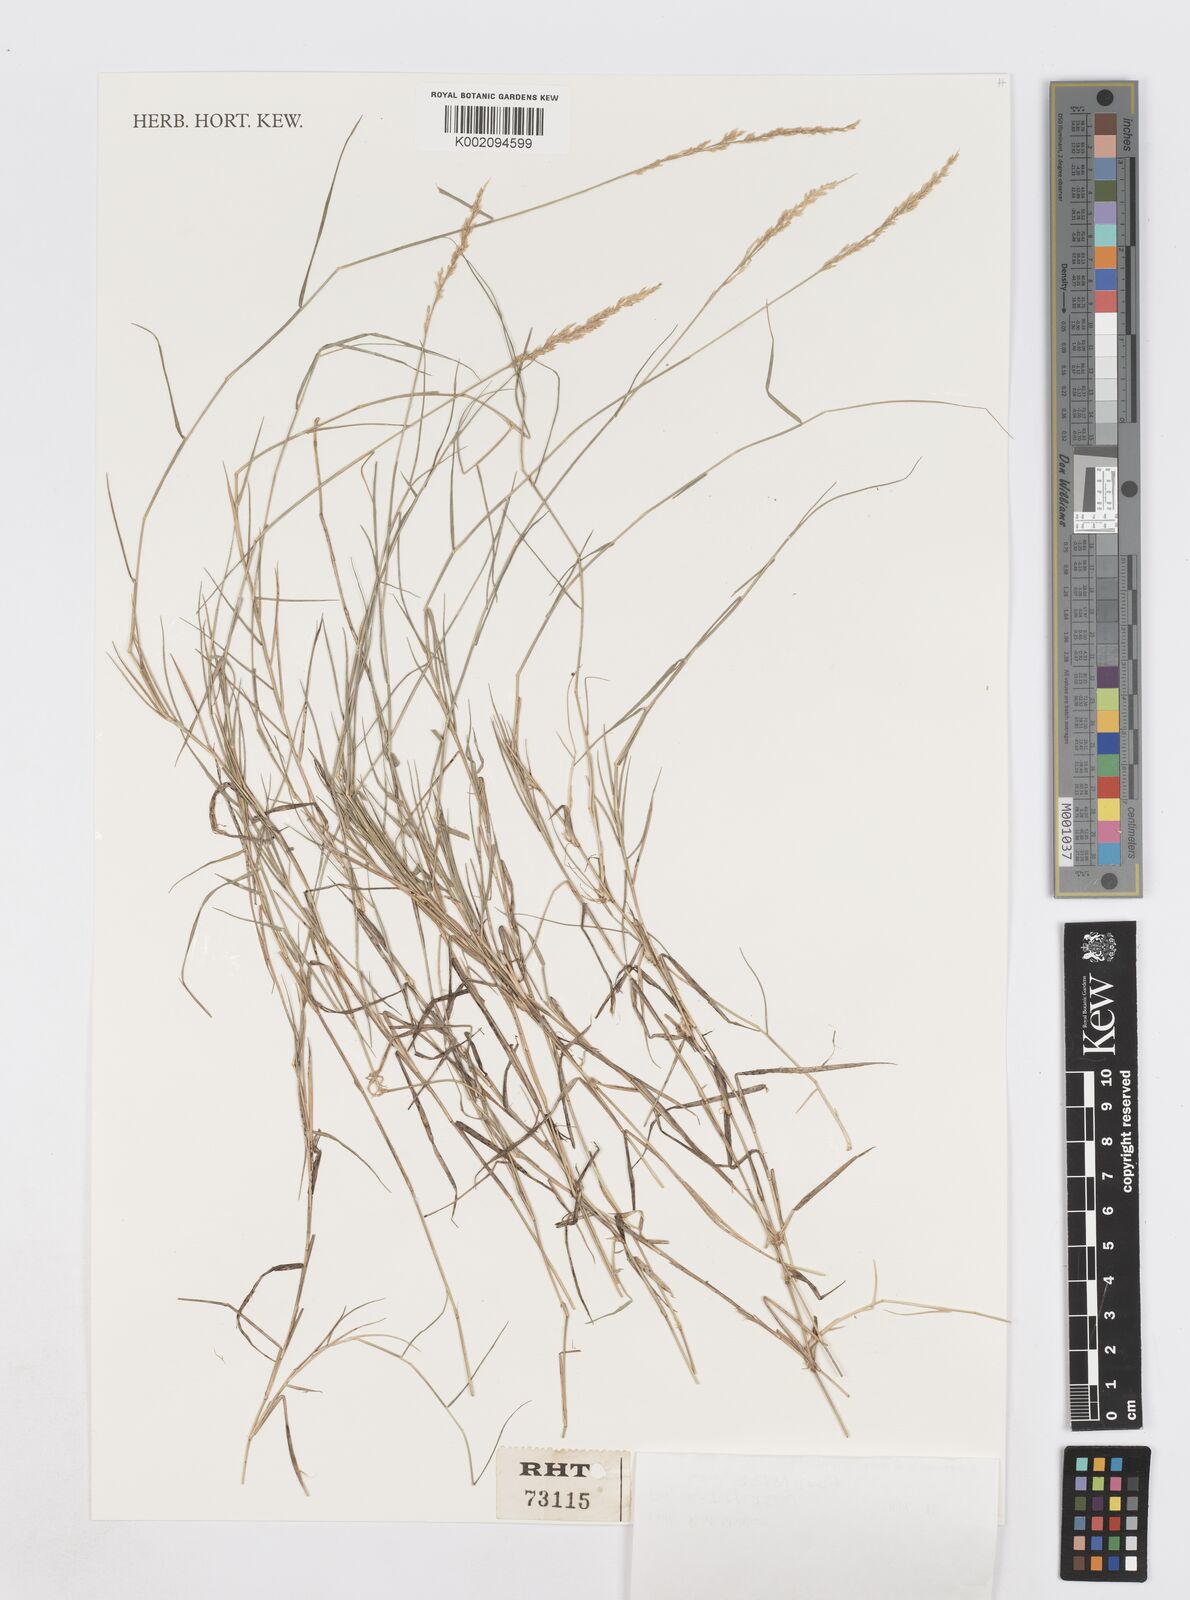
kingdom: Plantae
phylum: Tracheophyta
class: Liliopsida
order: Poales
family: Poaceae
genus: Sporobolus
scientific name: Sporobolus virginicus
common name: Beach dropseed
